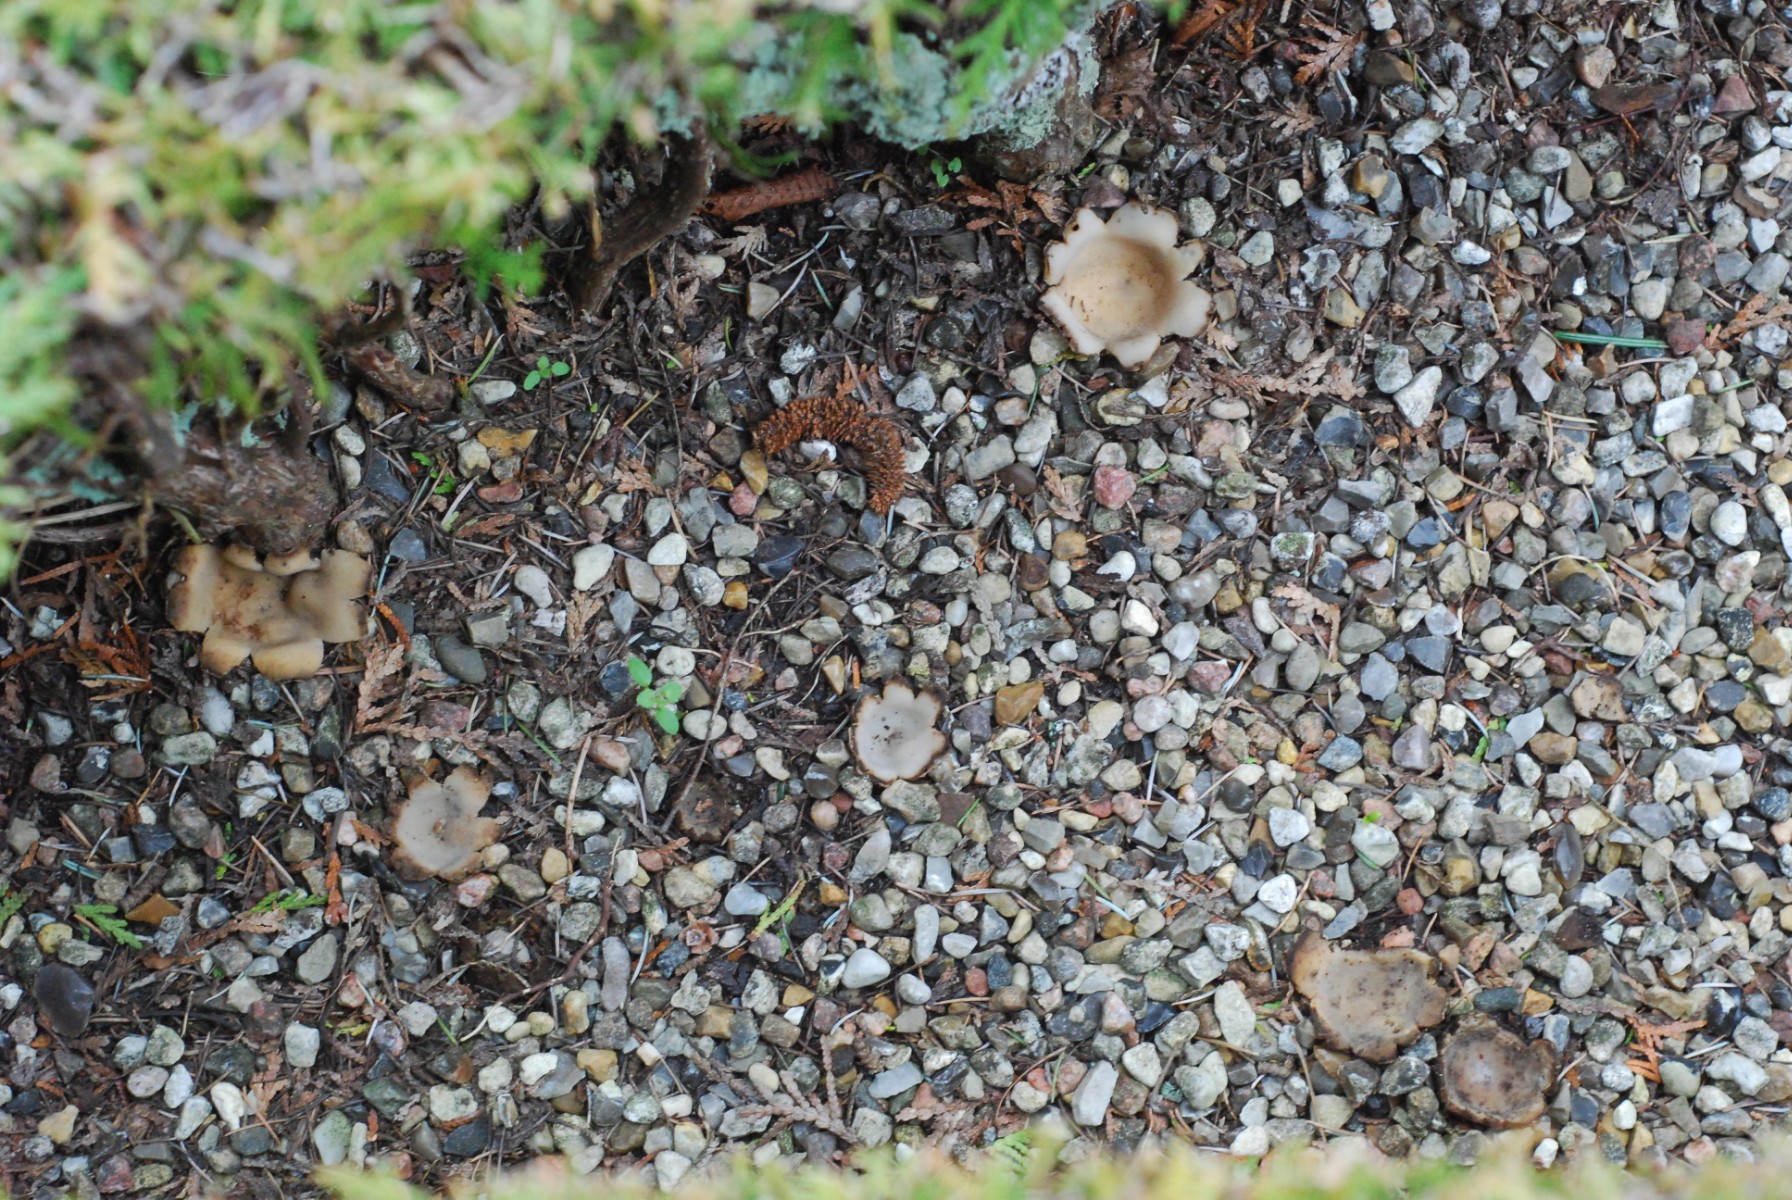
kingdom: Fungi
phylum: Ascomycota
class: Pezizomycetes
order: Pezizales
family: Pyronemataceae
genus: Geopora
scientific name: Geopora sumneriana
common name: vår-jordbæger
